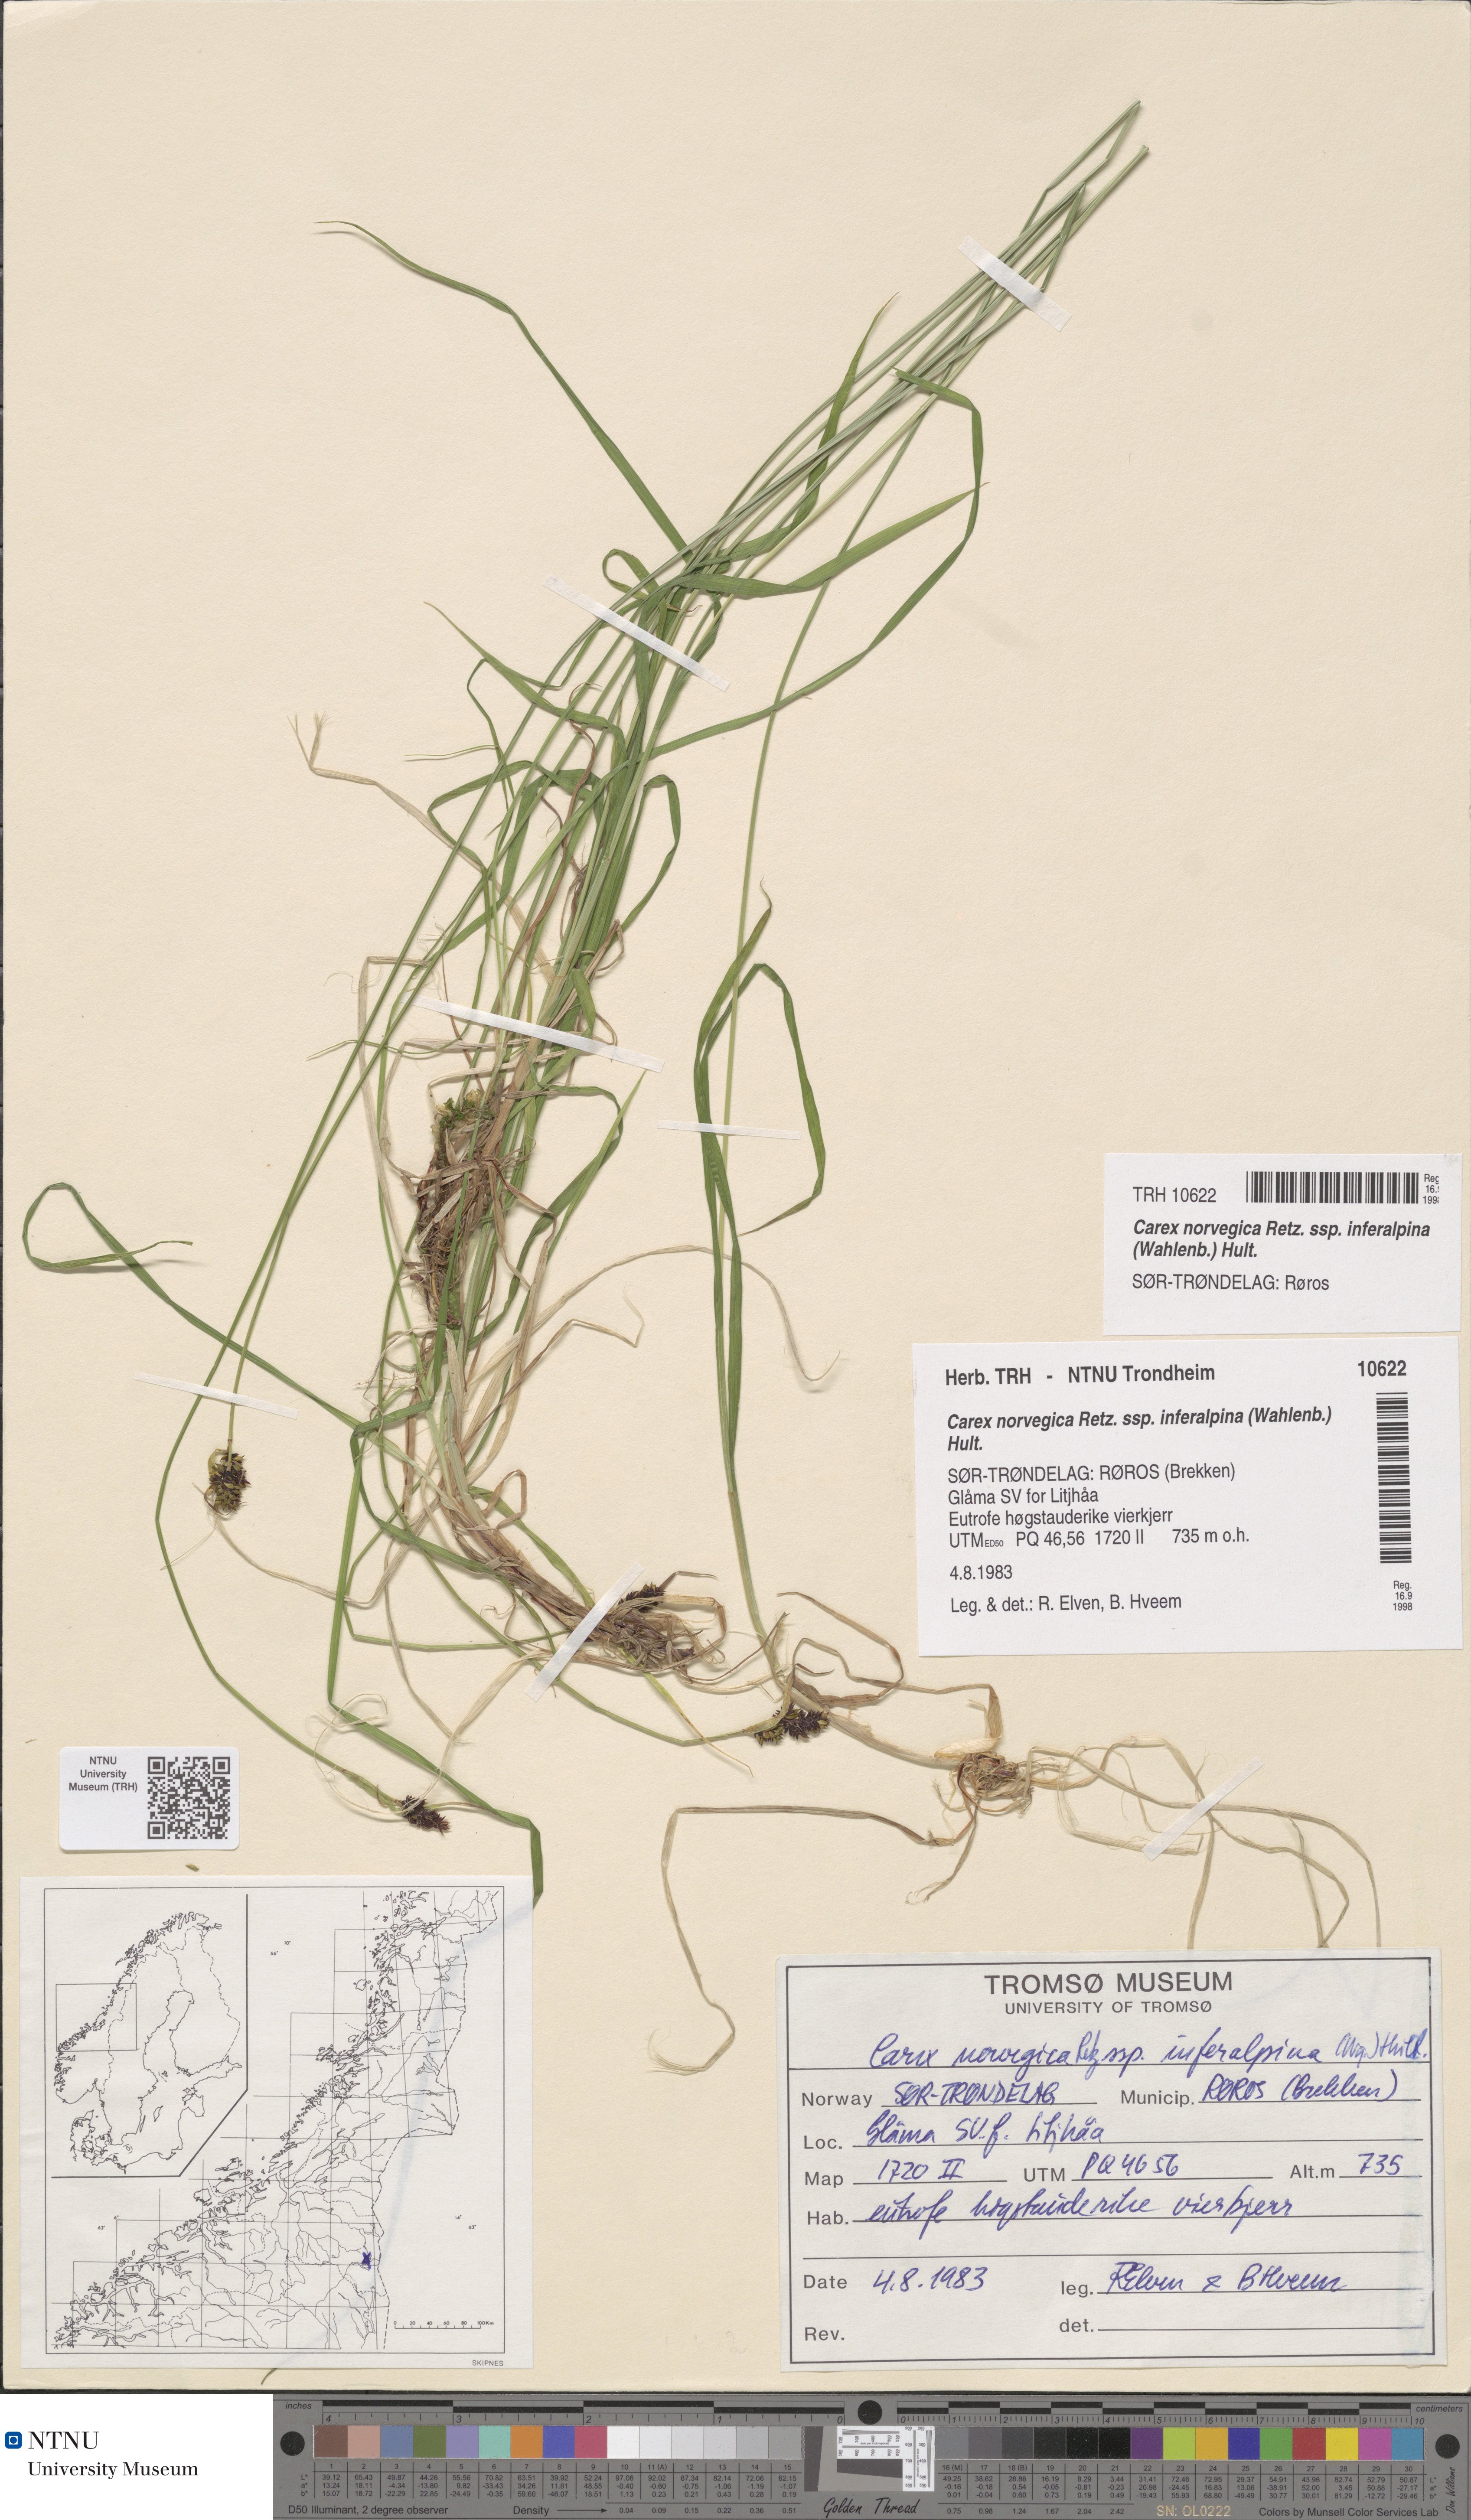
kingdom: Plantae
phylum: Tracheophyta
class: Liliopsida
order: Poales
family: Cyperaceae
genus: Carex
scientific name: Carex media
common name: Alpine sedge
